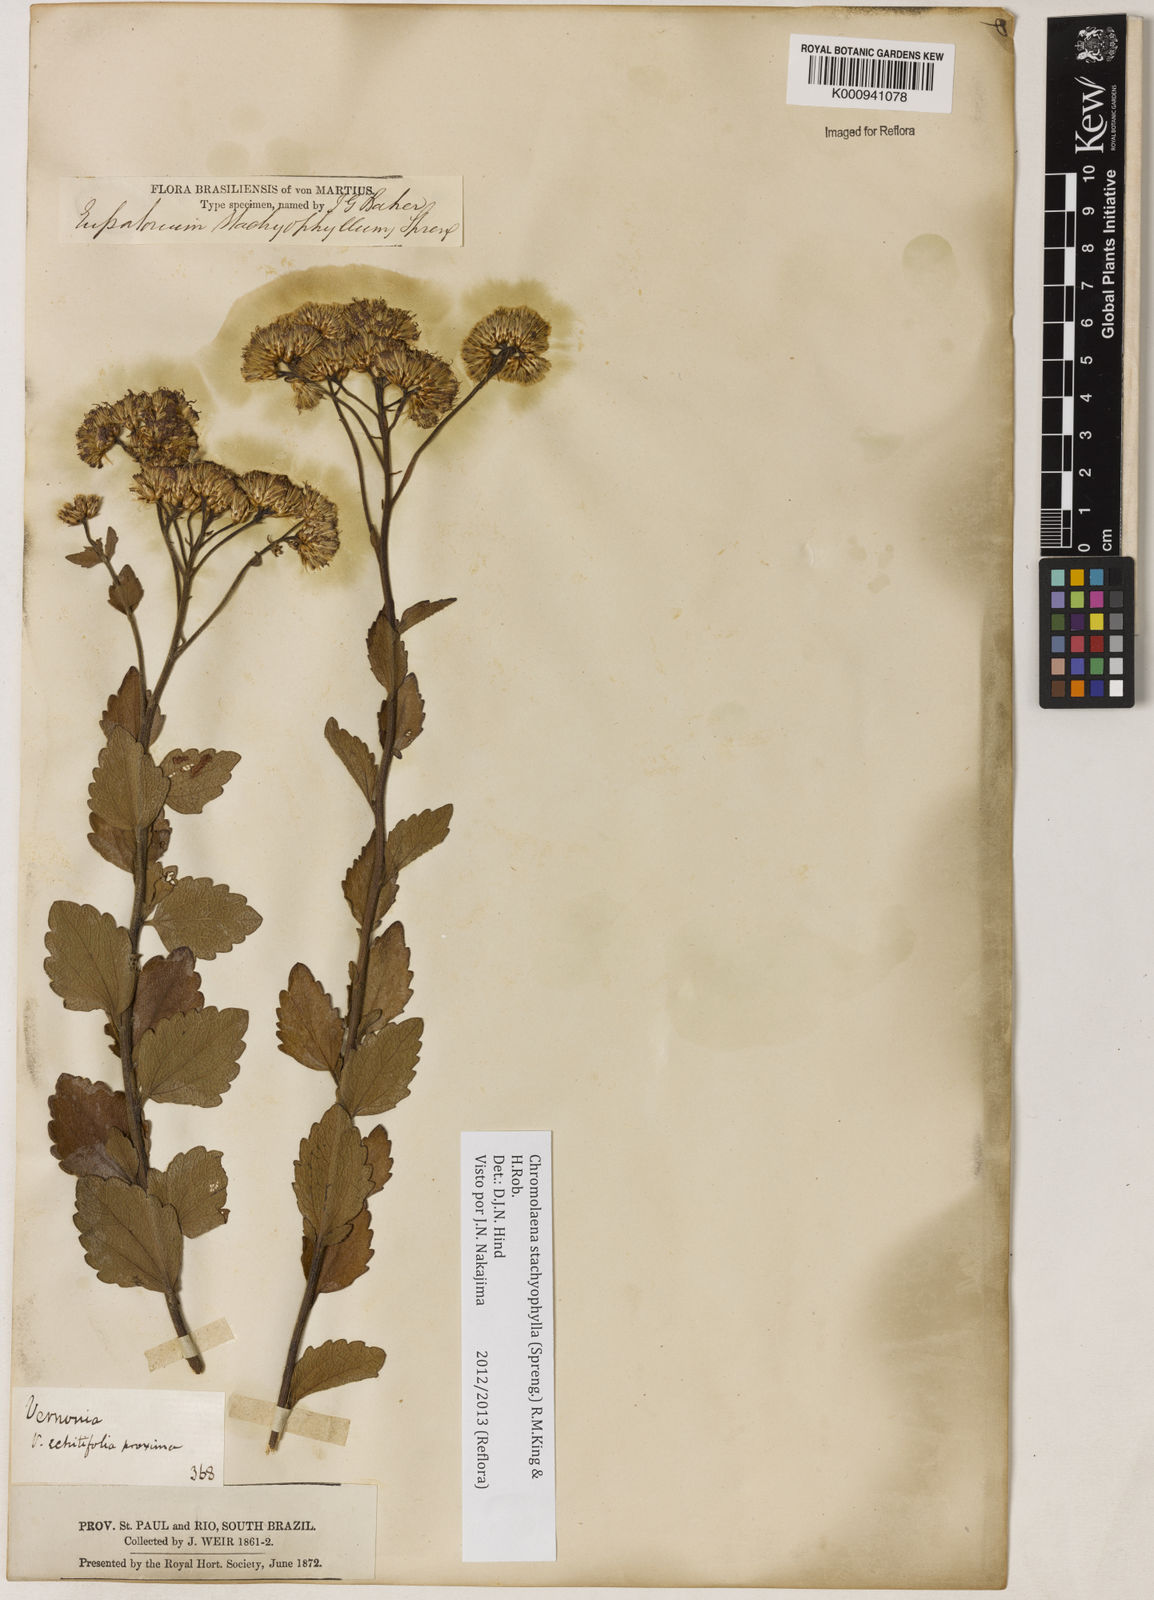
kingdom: Plantae
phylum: Tracheophyta
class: Magnoliopsida
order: Asterales
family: Asteraceae
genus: Chromolaena
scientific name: Chromolaena stachyophylla
